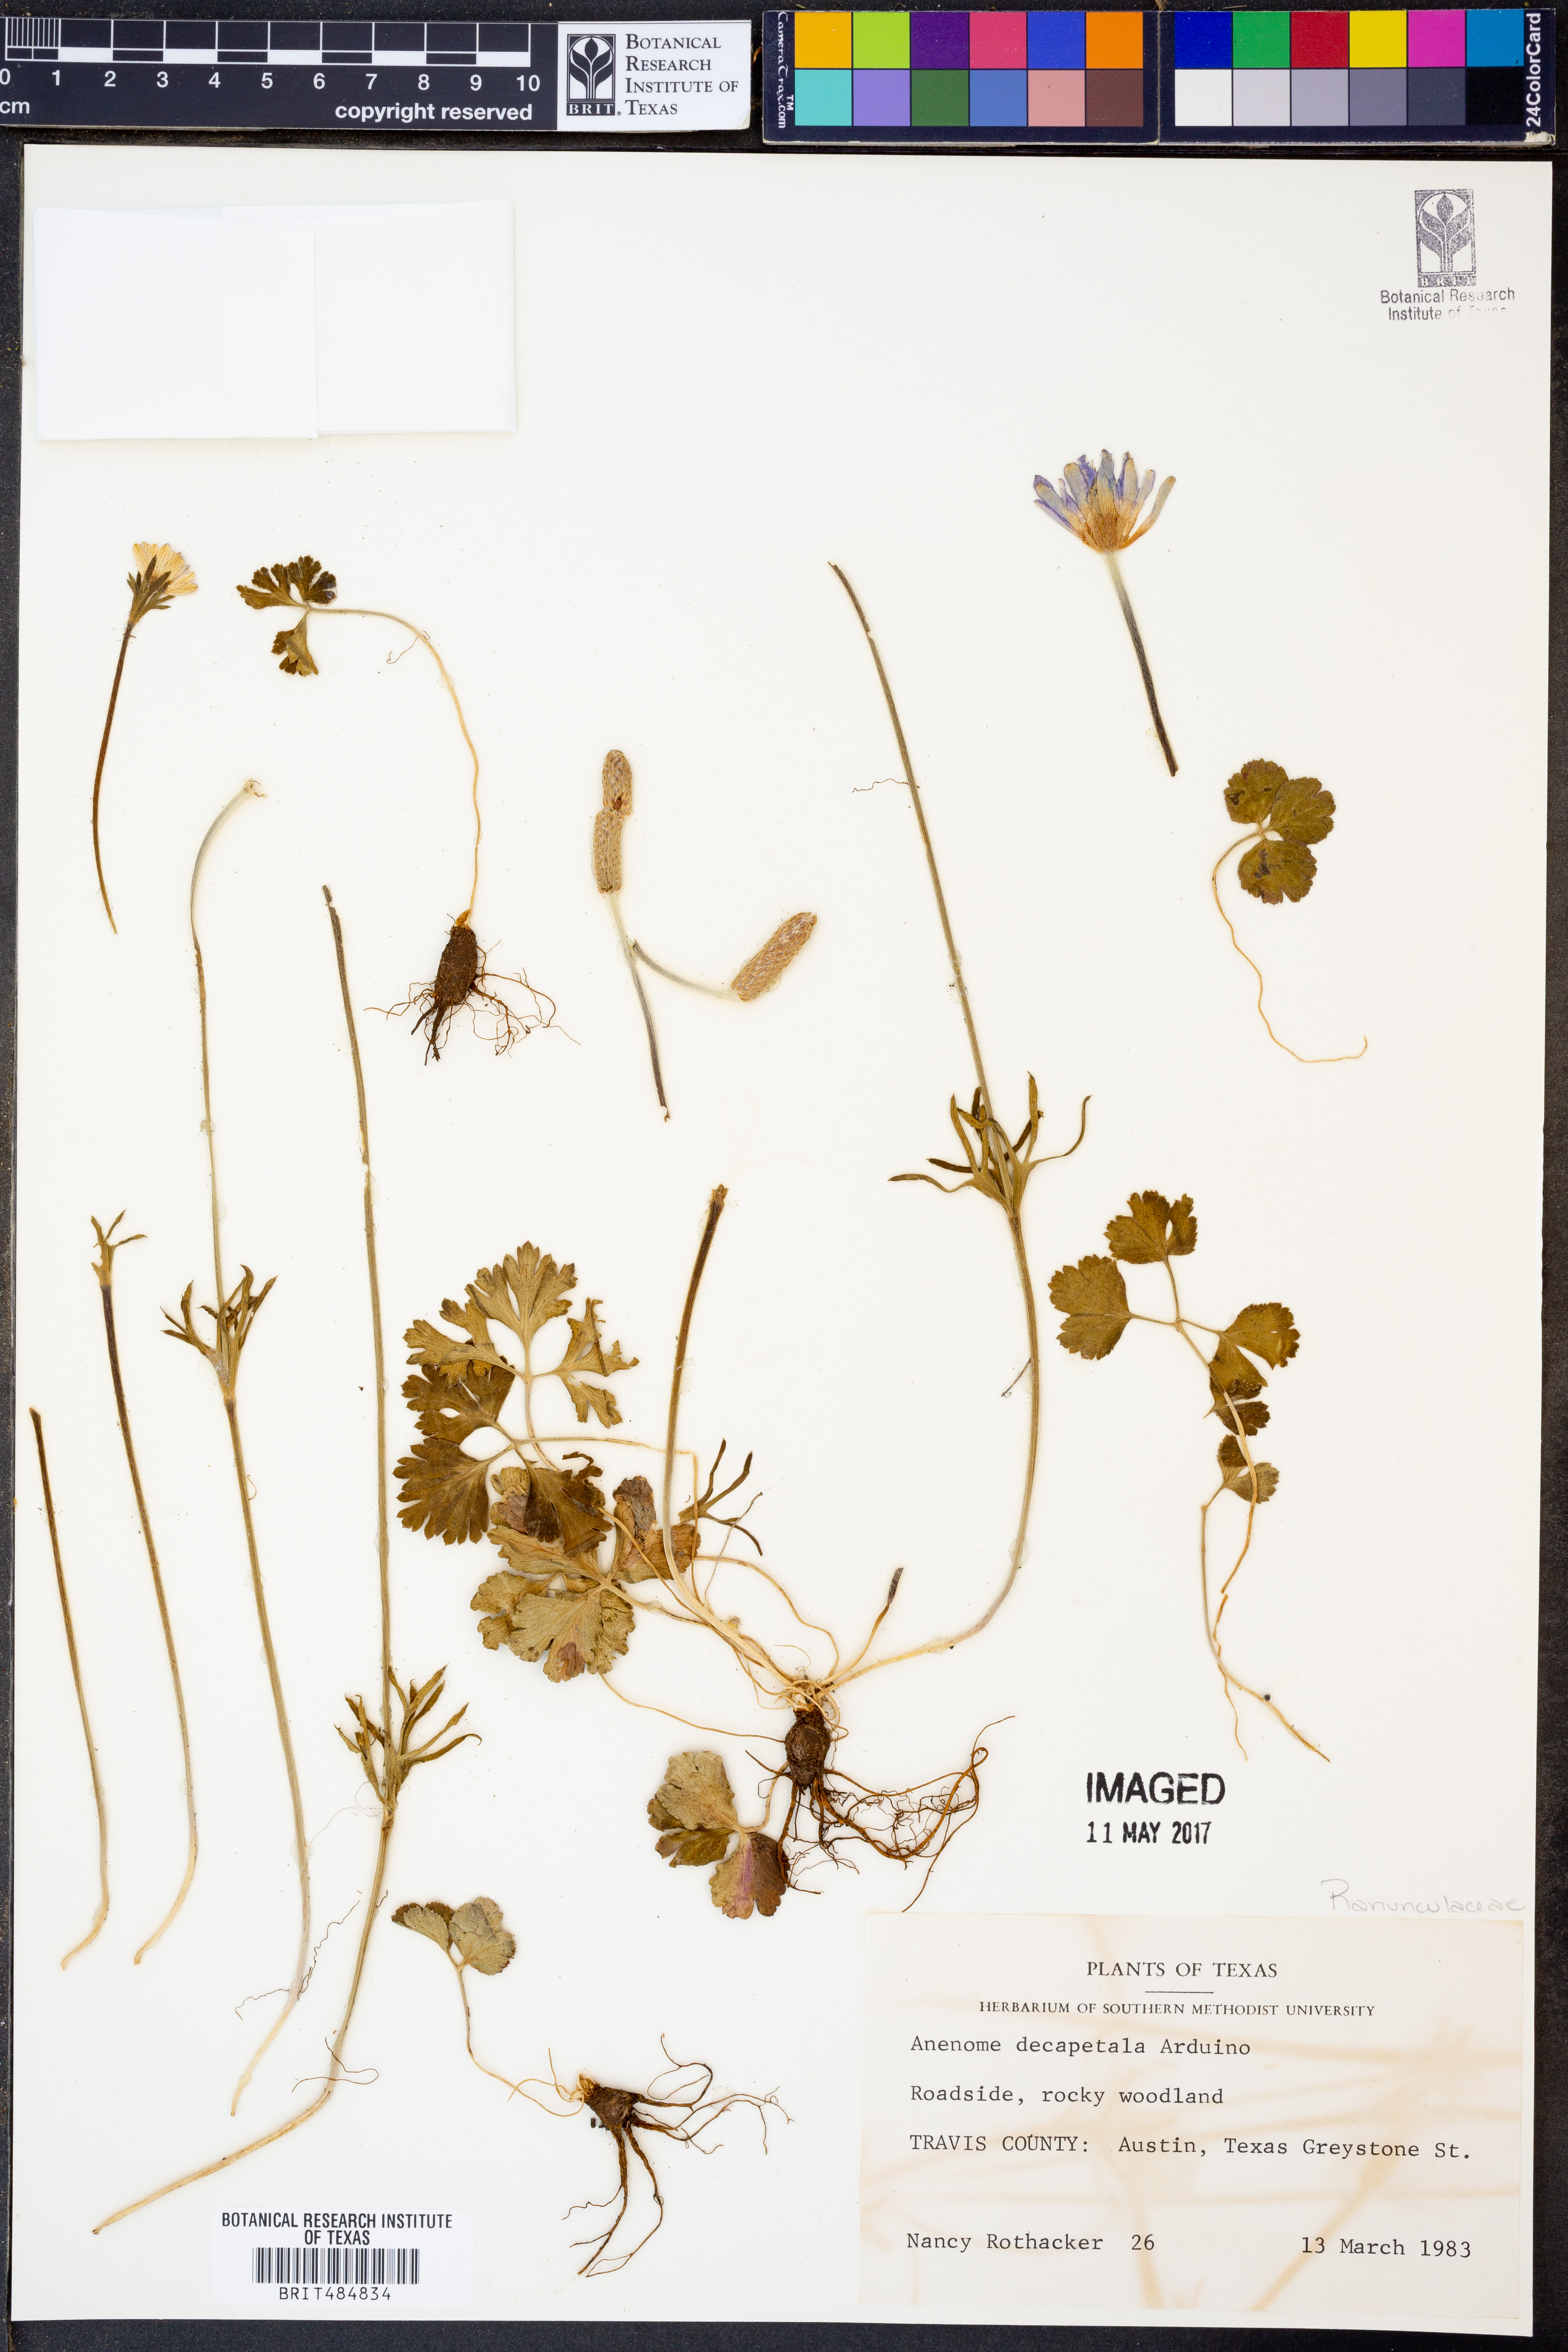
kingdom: Plantae
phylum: Tracheophyta
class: Magnoliopsida
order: Ranunculales
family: Ranunculaceae
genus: Anemone
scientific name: Anemone decapetala
